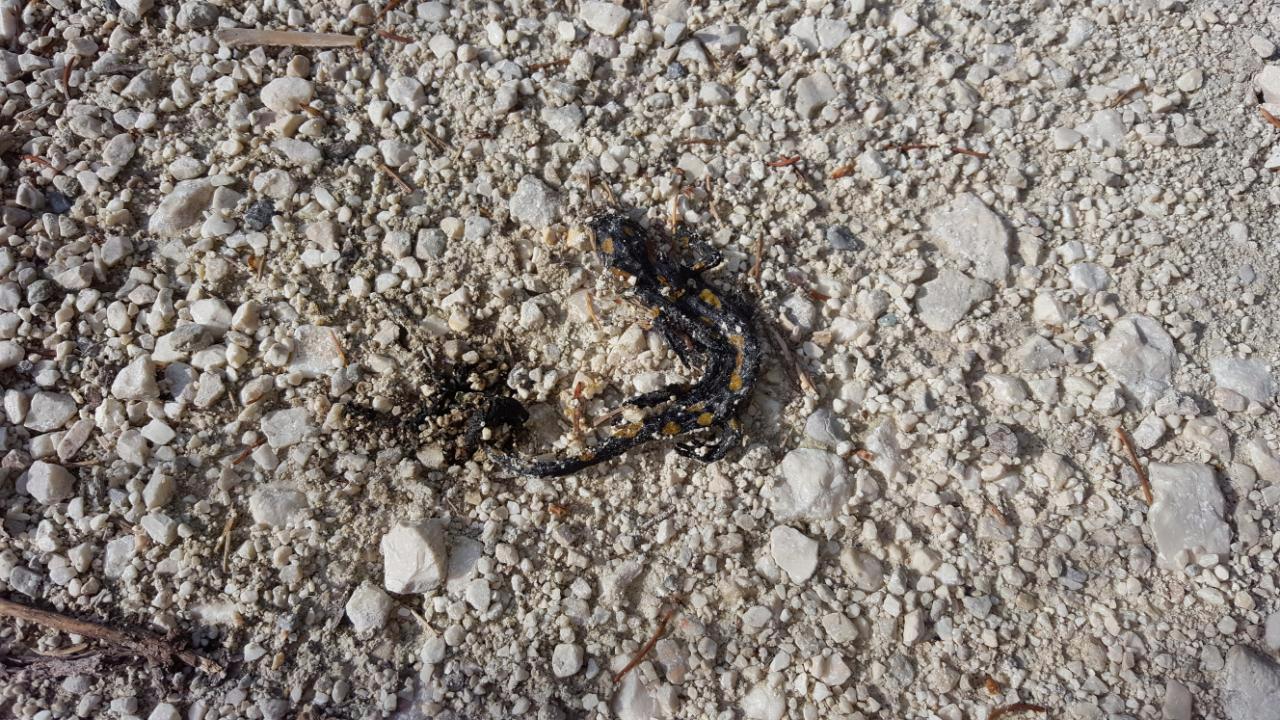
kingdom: Animalia
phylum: Chordata
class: Amphibia
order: Caudata
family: Salamandridae
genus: Salamandra
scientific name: Salamandra salamandra
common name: Fire salamander
